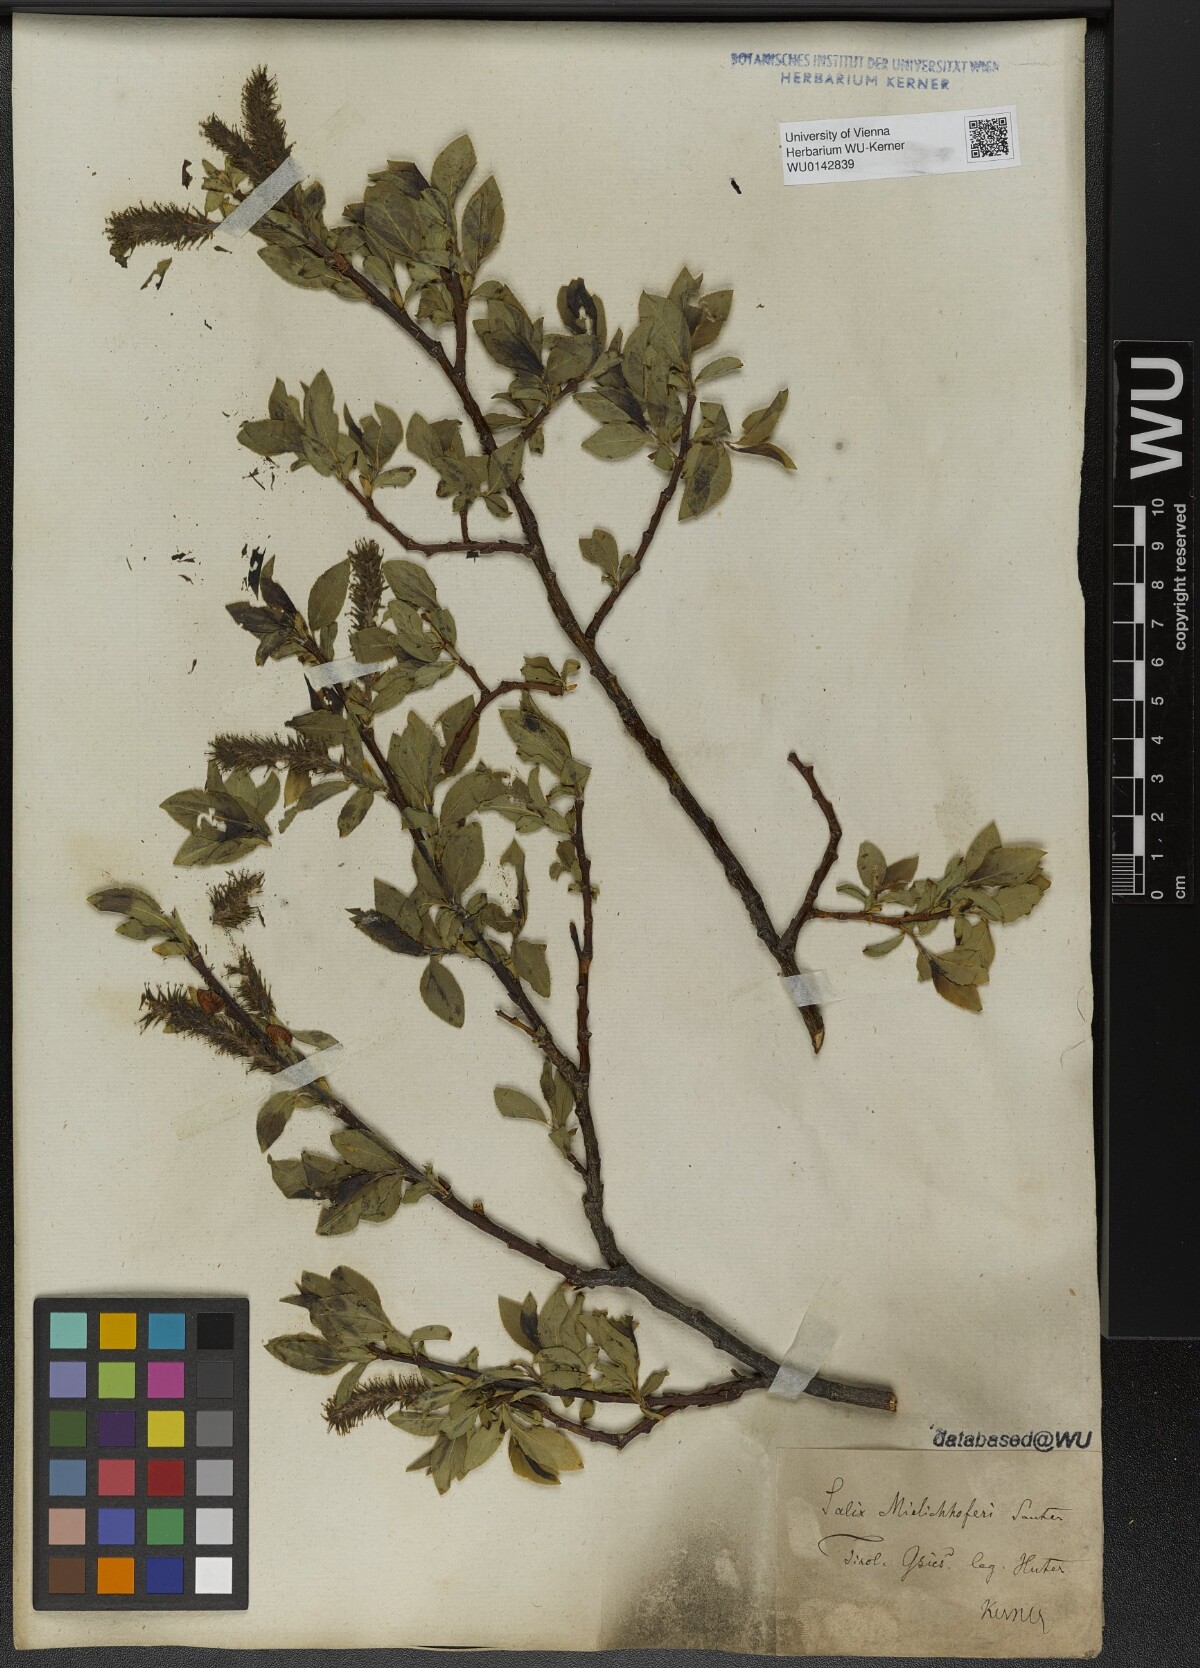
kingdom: Plantae
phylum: Tracheophyta
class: Magnoliopsida
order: Malpighiales
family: Salicaceae
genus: Salix
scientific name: Salix mielichhoferi
